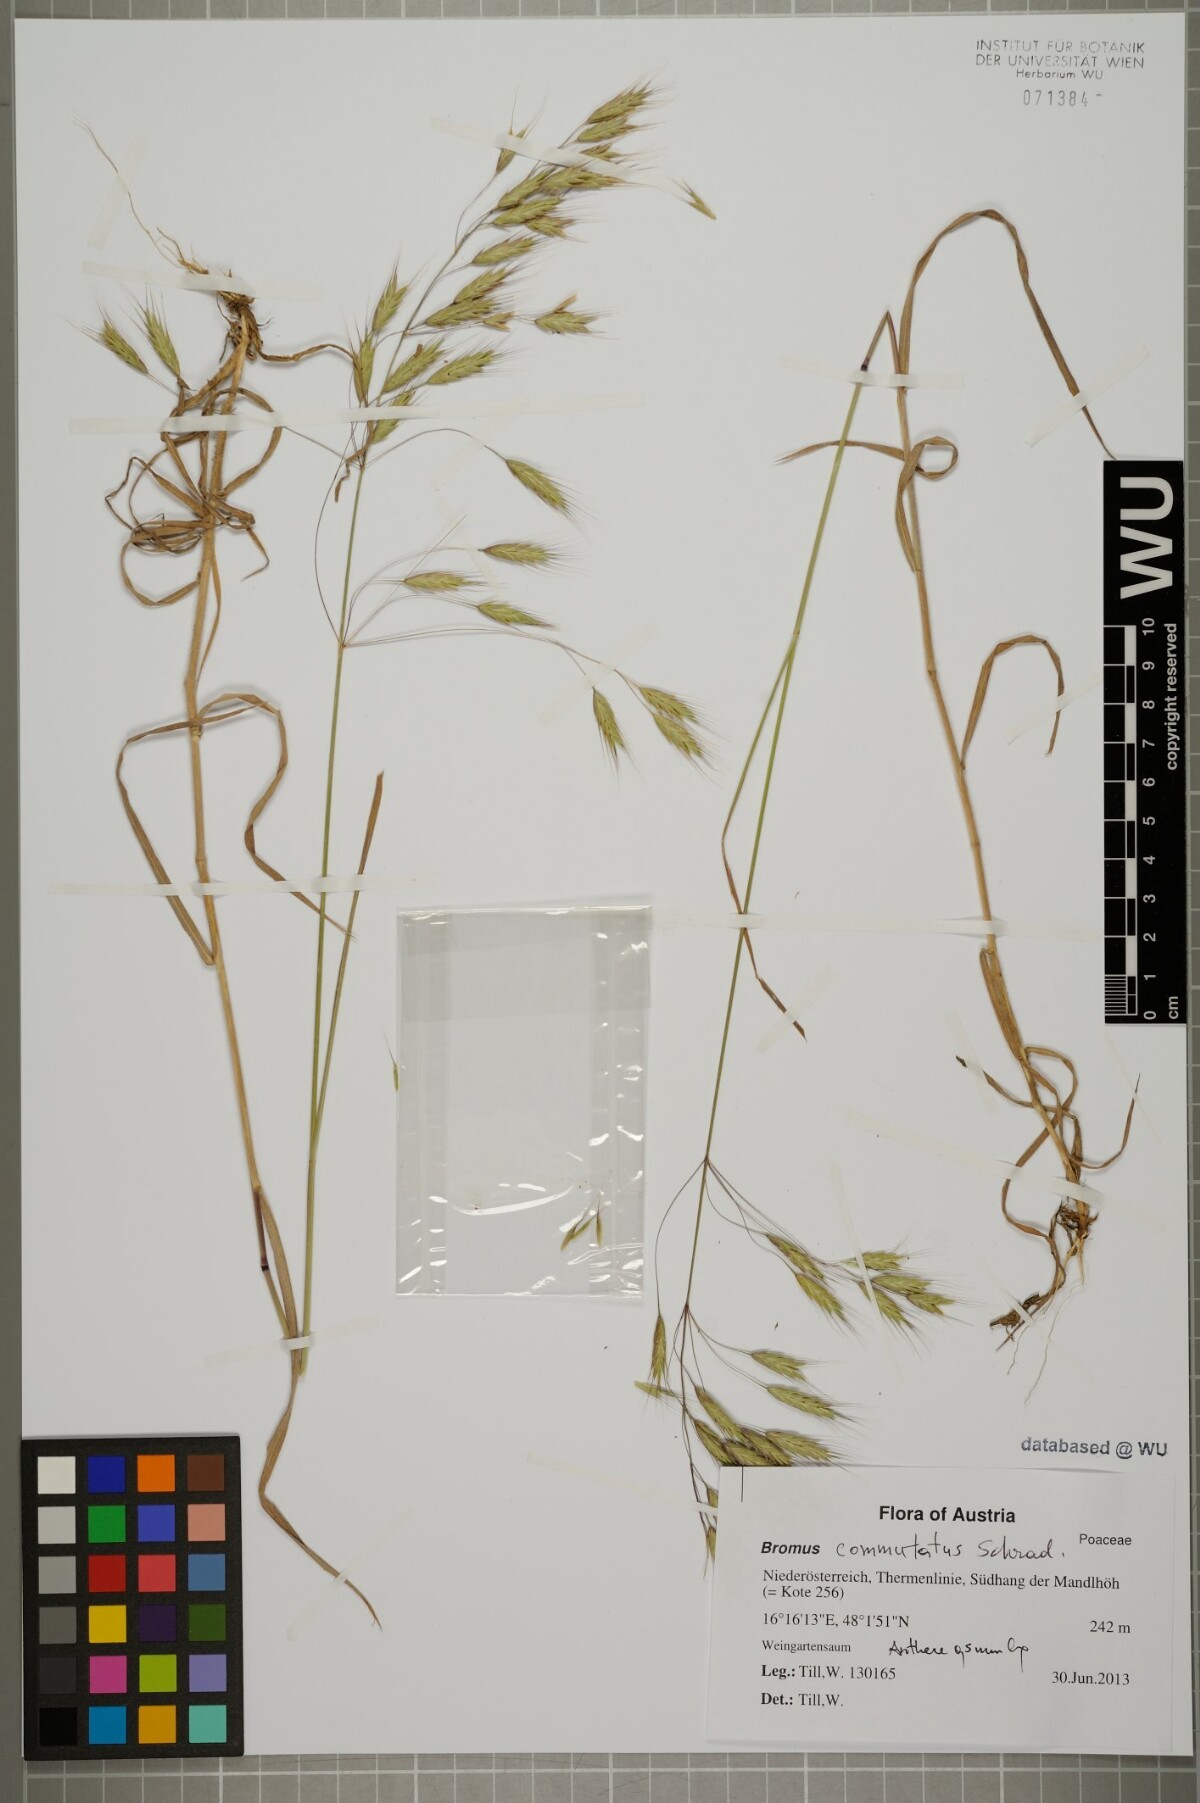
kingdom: Plantae
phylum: Tracheophyta
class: Liliopsida
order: Poales
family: Poaceae
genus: Bromus
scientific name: Bromus japonicus
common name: Japanese brome
